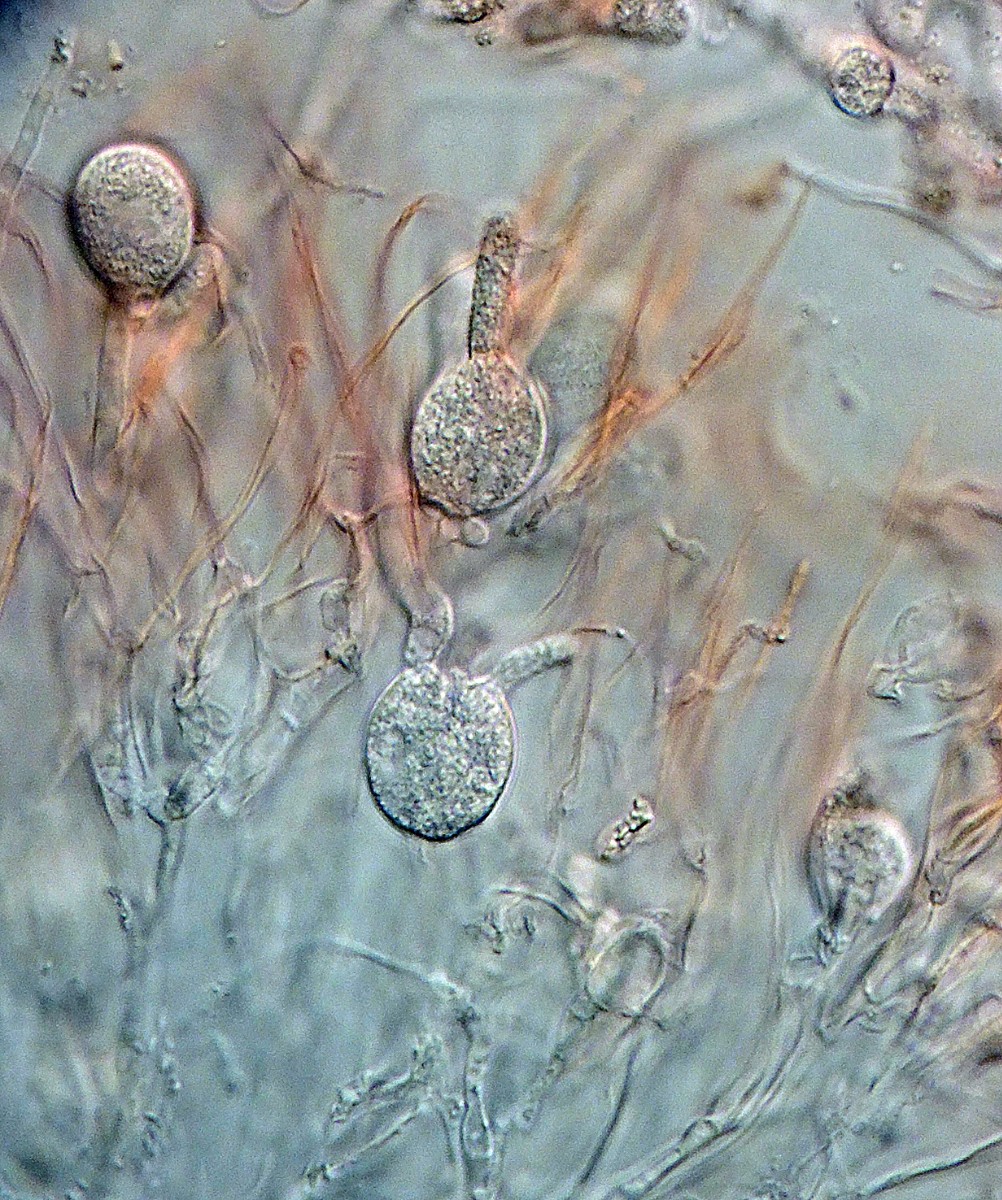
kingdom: Fungi
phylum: Basidiomycota
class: Tremellomycetes
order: Tremellales
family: Exidiaceae
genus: Exidiopsis
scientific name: Exidiopsis effusa
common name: smuk bævrehinde
